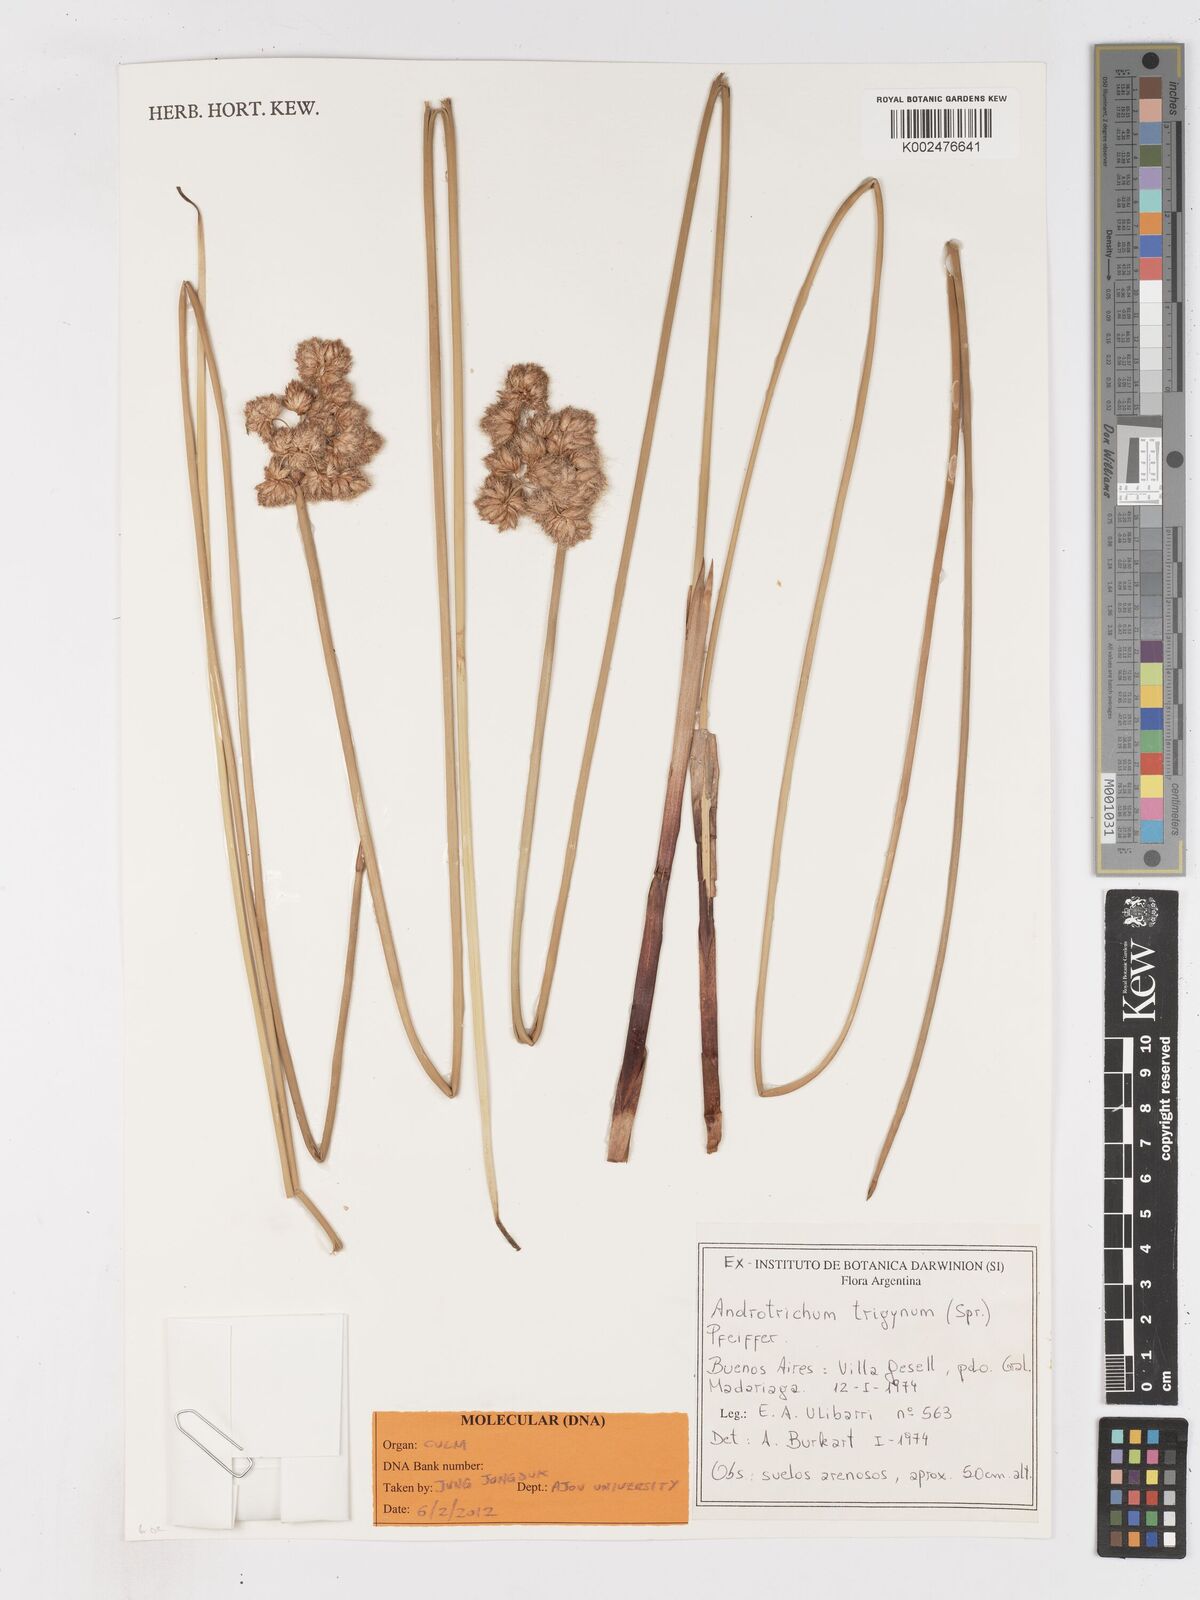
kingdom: Plantae
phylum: Tracheophyta
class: Liliopsida
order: Poales
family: Cyperaceae
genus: Cyperus
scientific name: Cyperus trigynus
